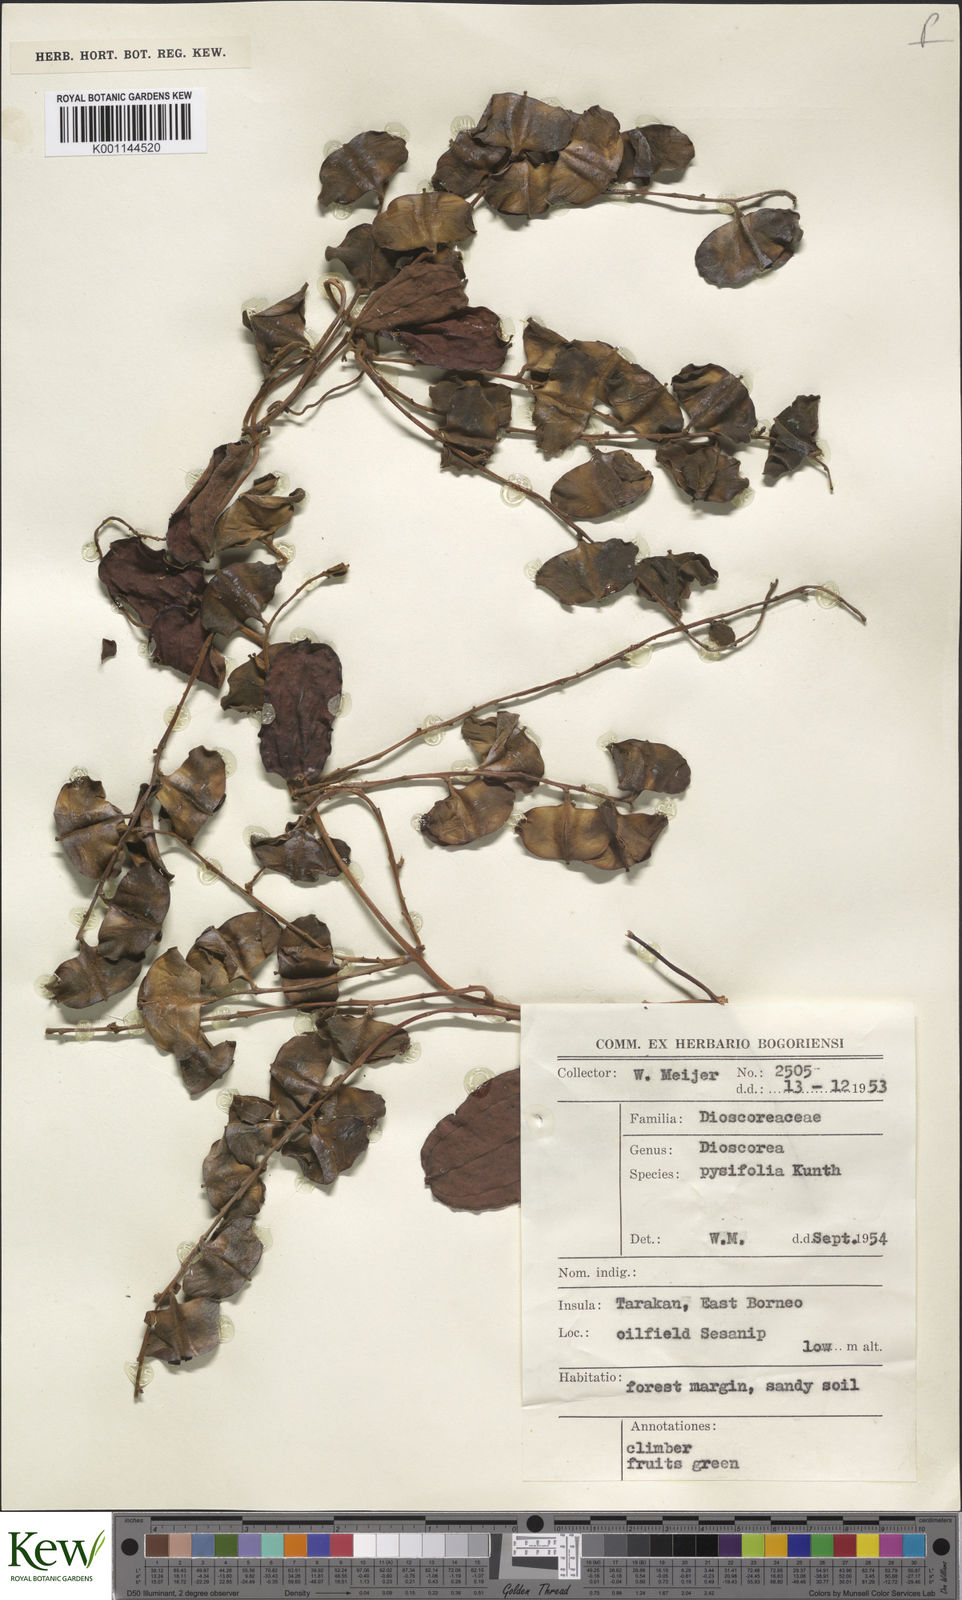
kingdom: Plantae
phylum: Tracheophyta
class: Liliopsida
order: Dioscoreales
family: Dioscoreaceae
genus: Dioscorea
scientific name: Dioscorea pyrifolia
